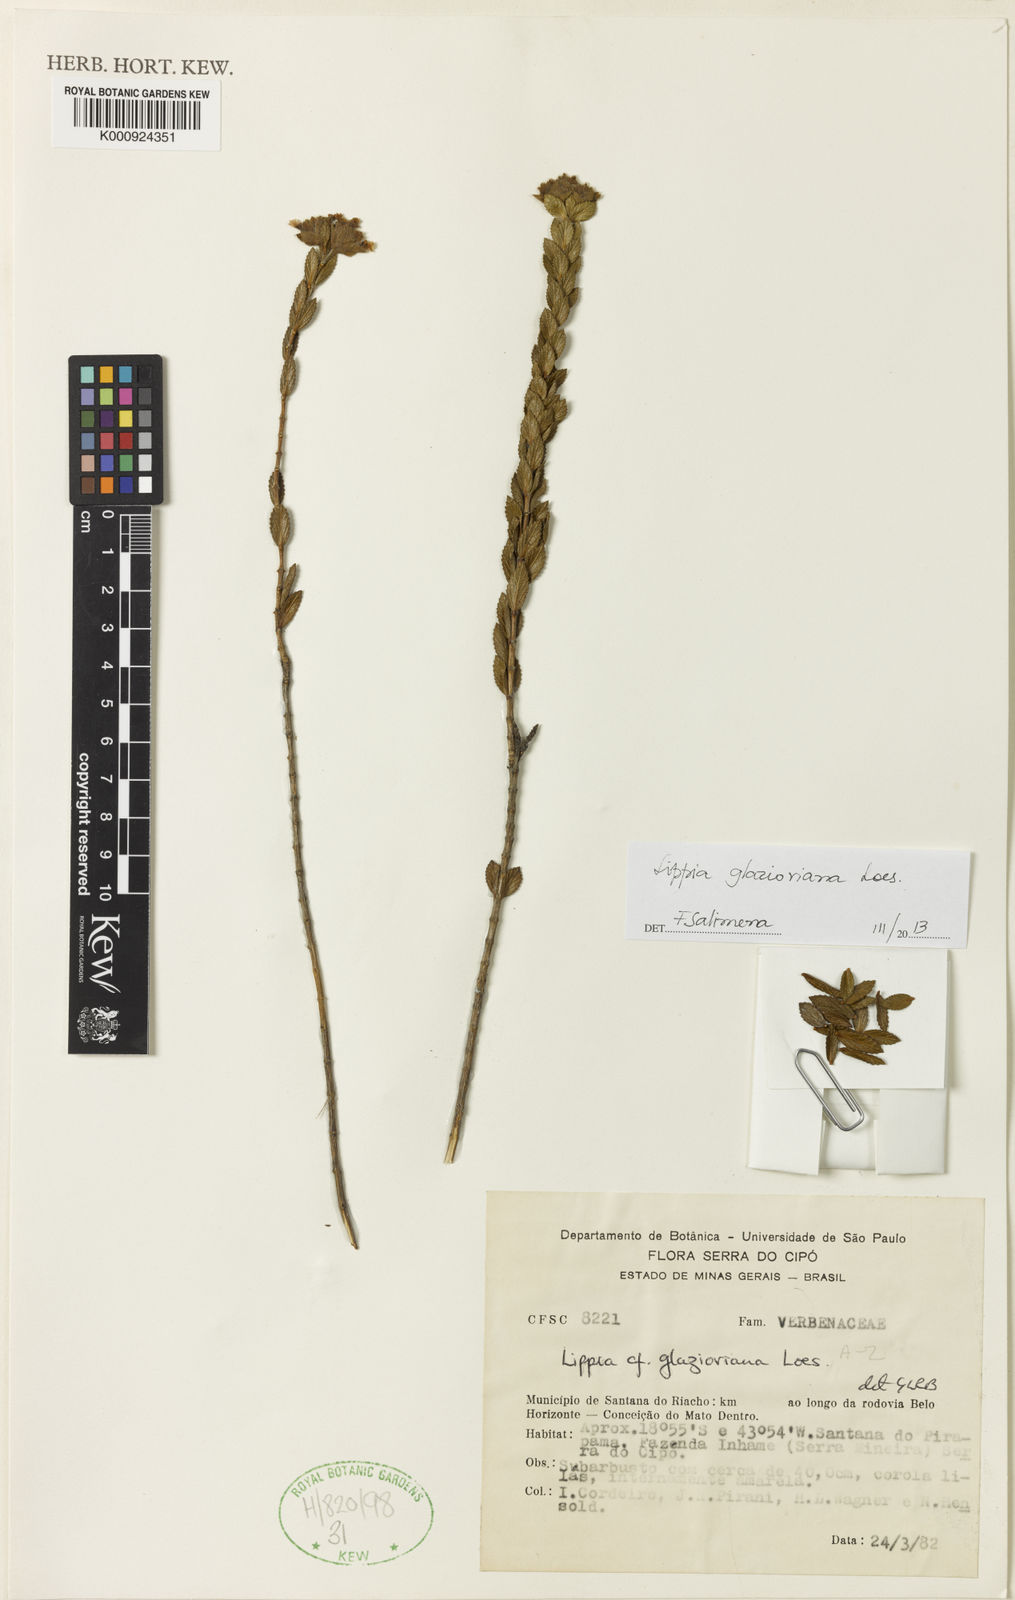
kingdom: Plantae
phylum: Tracheophyta
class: Magnoliopsida
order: Lamiales
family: Verbenaceae
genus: Lippia
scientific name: Lippia glazioviana
